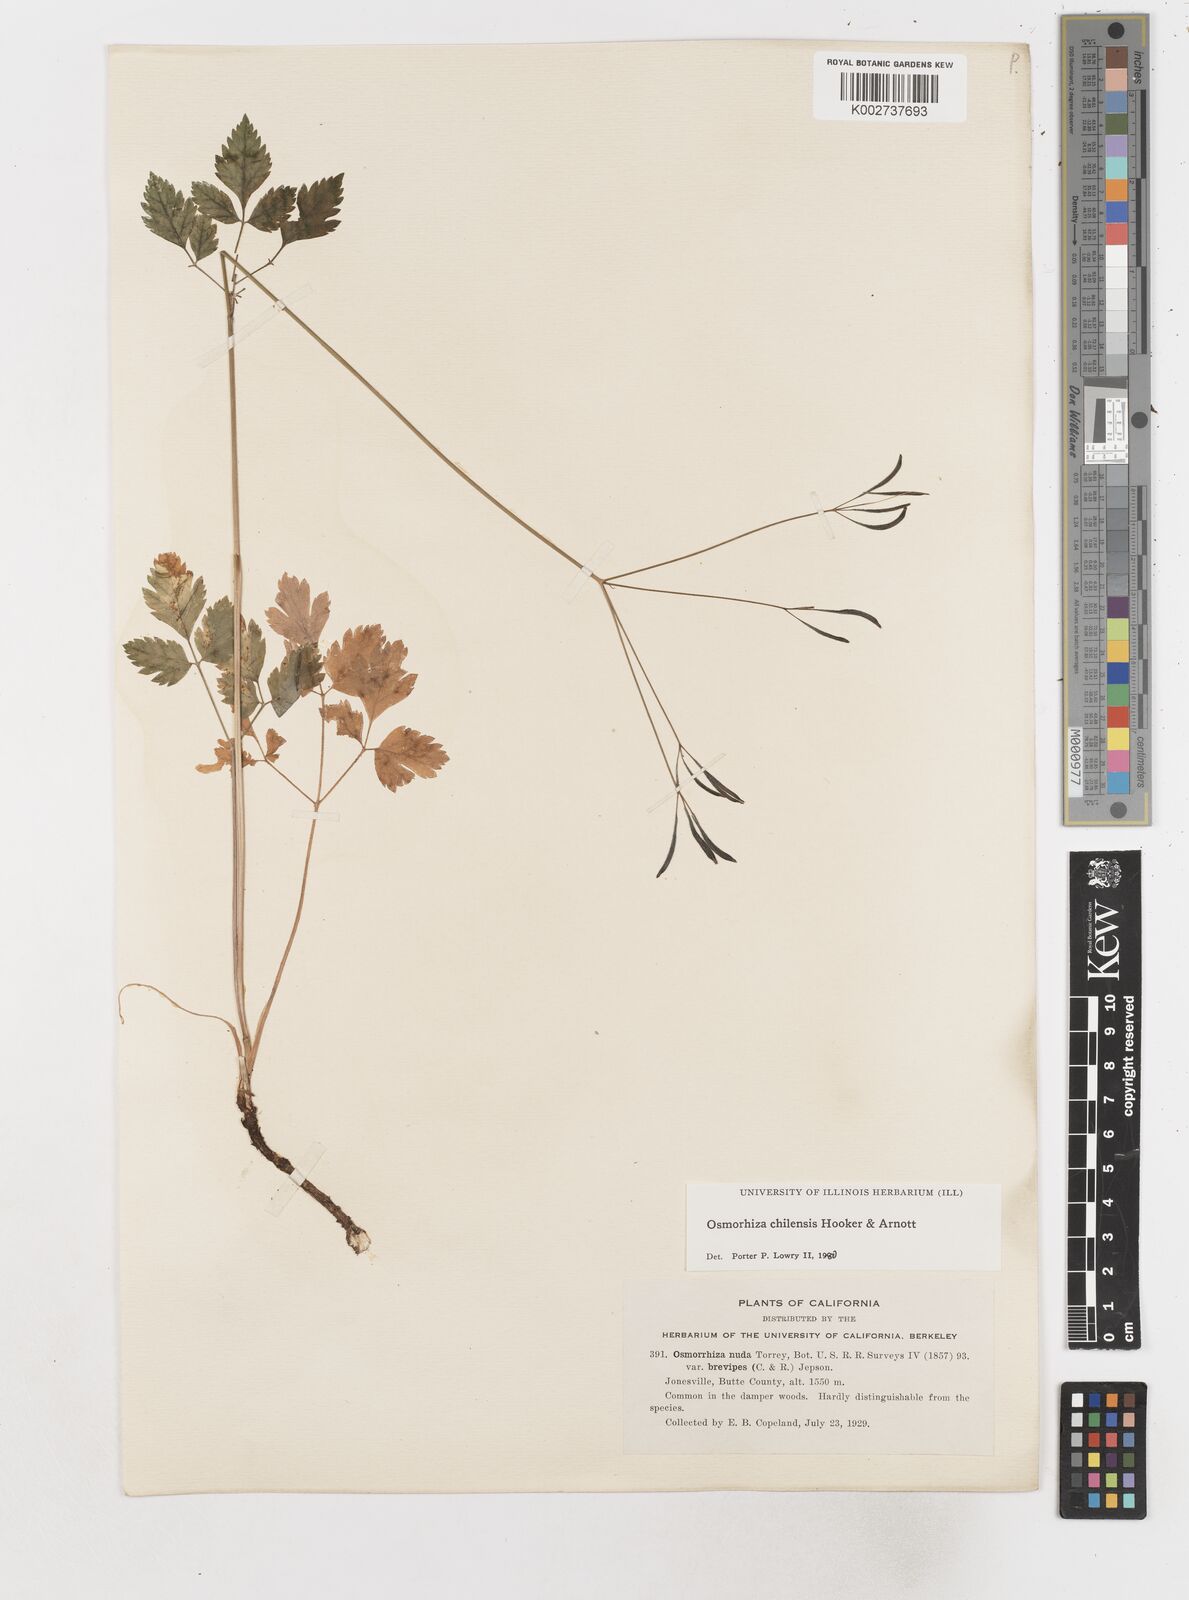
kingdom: Plantae
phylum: Tracheophyta
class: Magnoliopsida
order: Apiales
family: Apiaceae
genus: Osmorhiza
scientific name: Osmorhiza berteroi
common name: Mountain sweet cicely
